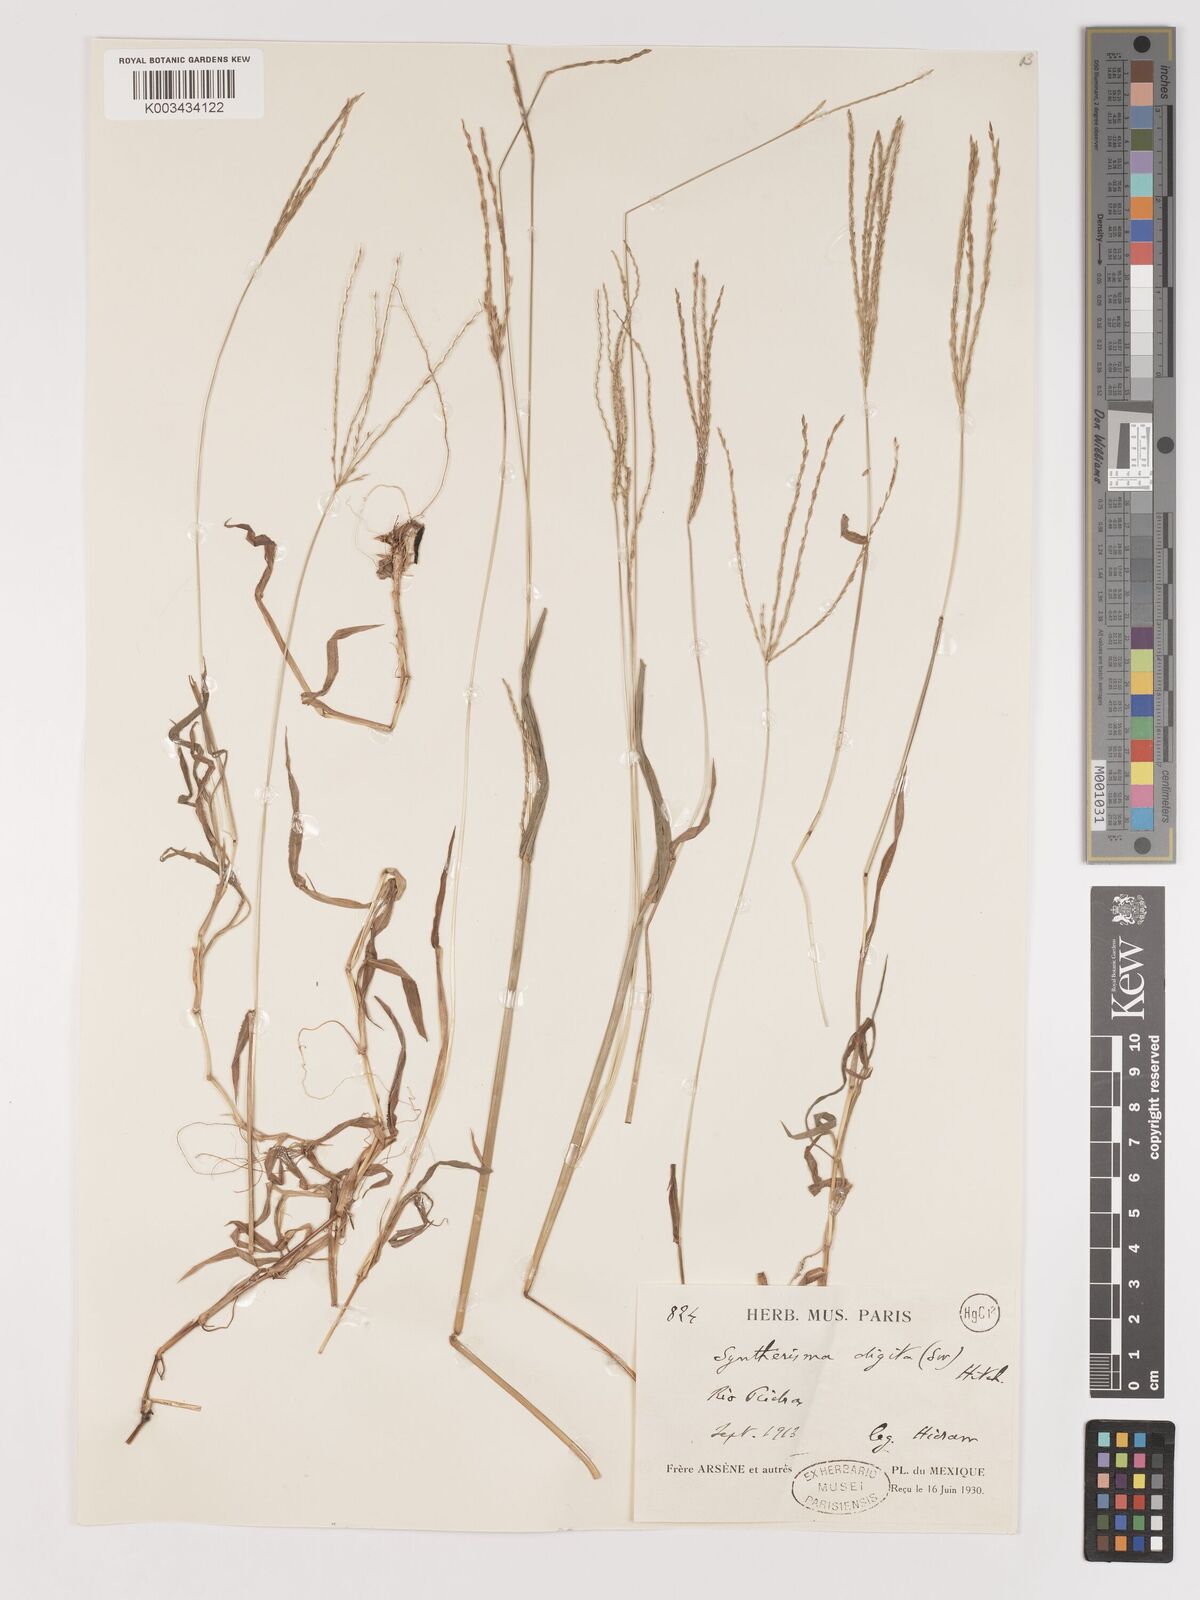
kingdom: Plantae
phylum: Tracheophyta
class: Liliopsida
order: Poales
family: Poaceae
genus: Digitaria
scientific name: Digitaria ciliaris
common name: Tropical finger-grass
